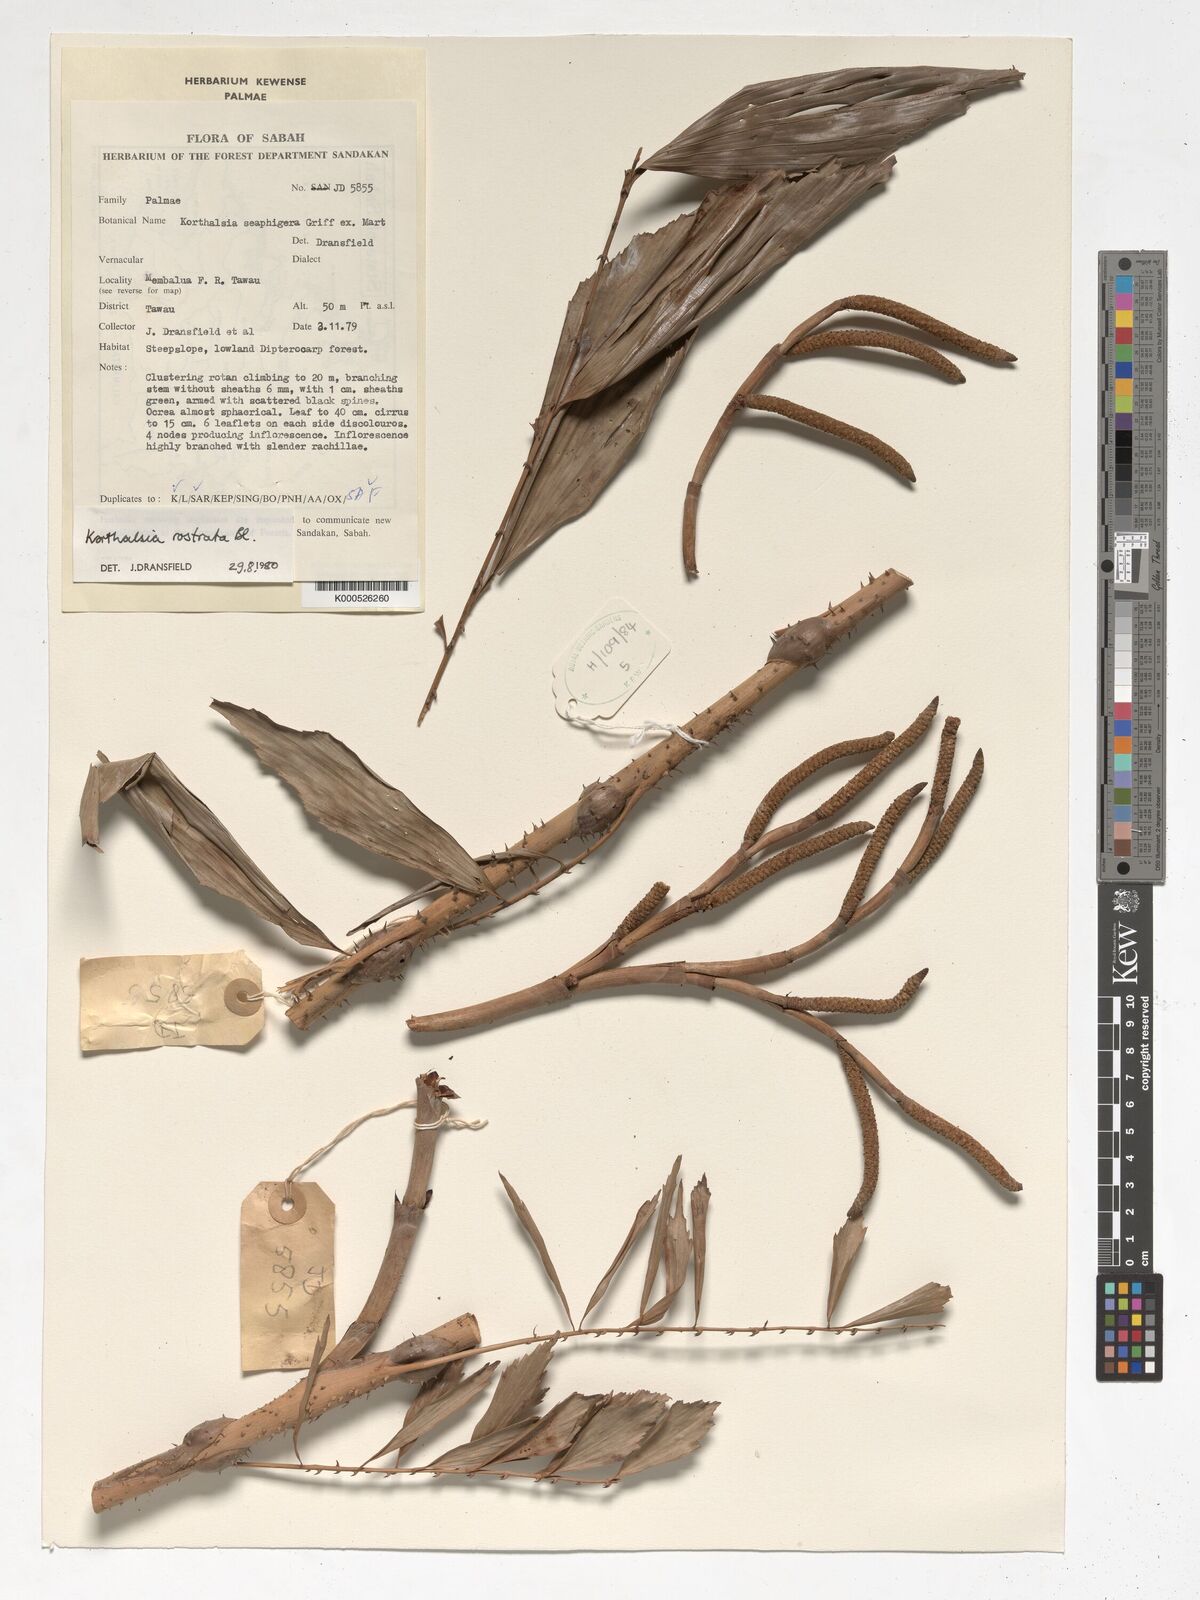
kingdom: Plantae
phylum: Tracheophyta
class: Liliopsida
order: Arecales
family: Arecaceae
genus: Korthalsia
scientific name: Korthalsia rostrata
